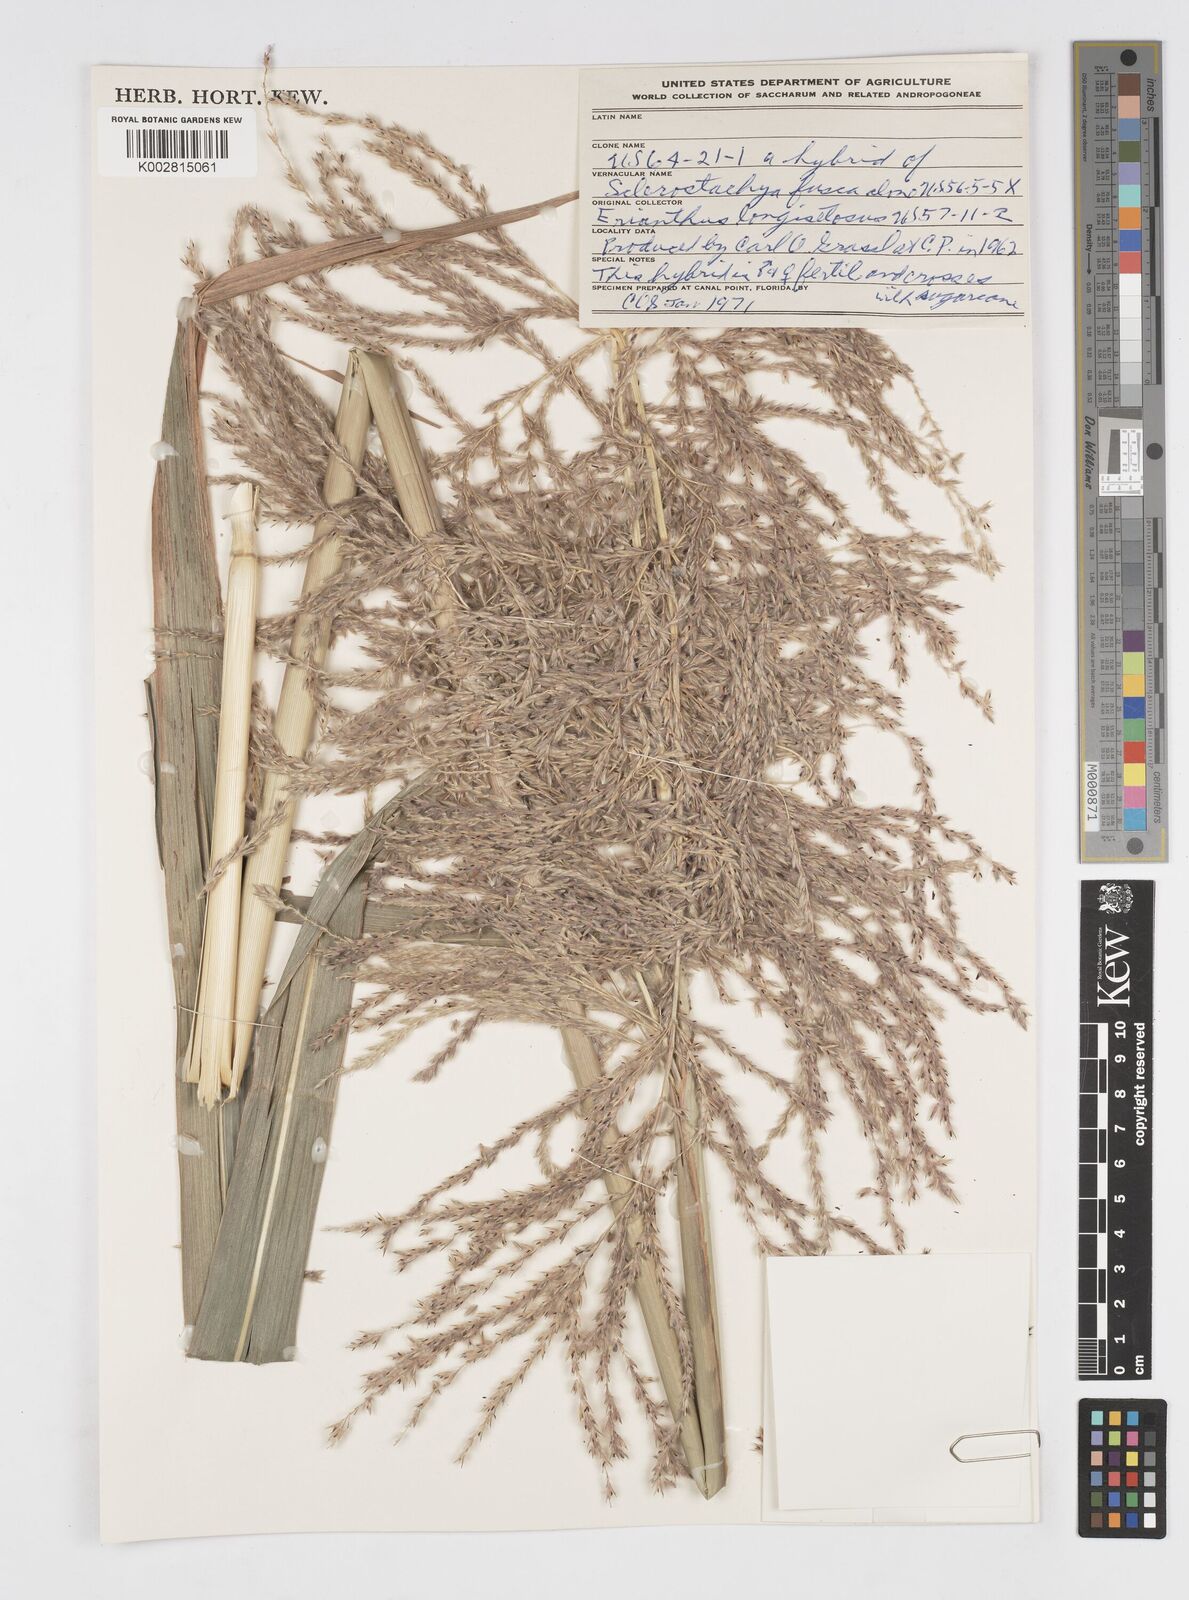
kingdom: Plantae
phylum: Tracheophyta
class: Liliopsida
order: Poales
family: Poaceae
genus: Saccharum
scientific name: Saccharum
